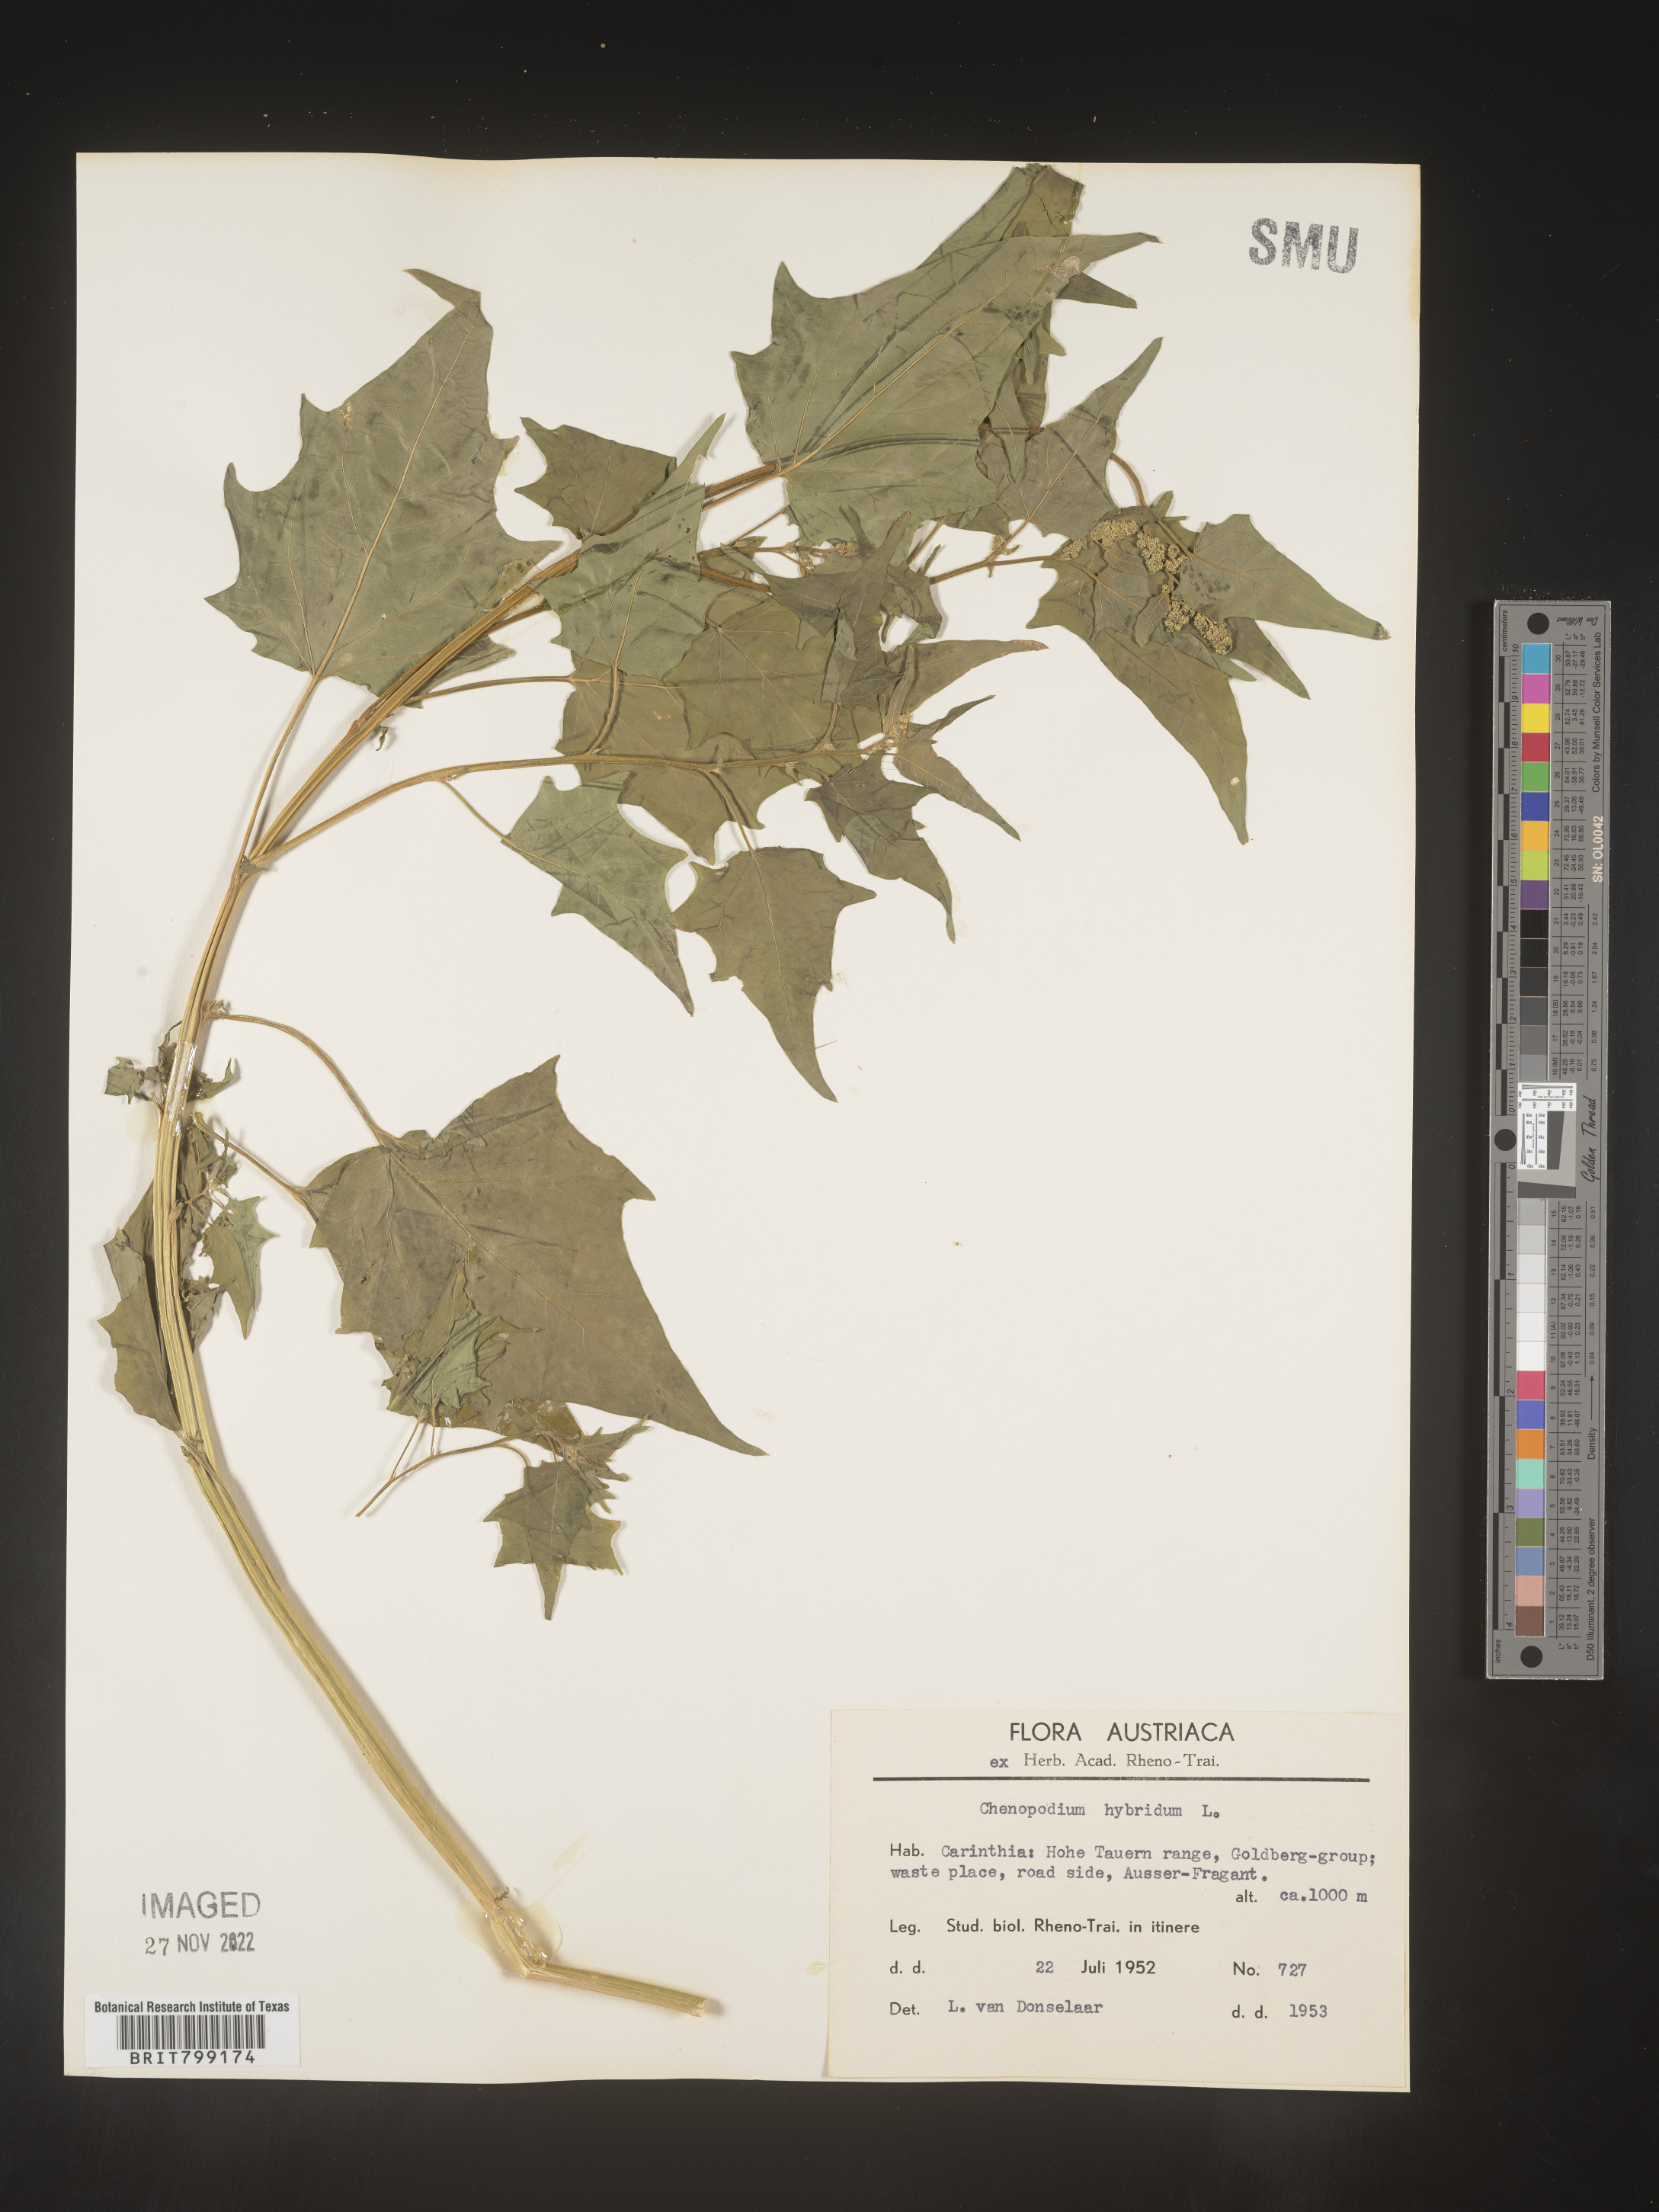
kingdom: Plantae
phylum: Tracheophyta
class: Magnoliopsida
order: Caryophyllales
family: Amaranthaceae
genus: Chenopodium
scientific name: Chenopodium
